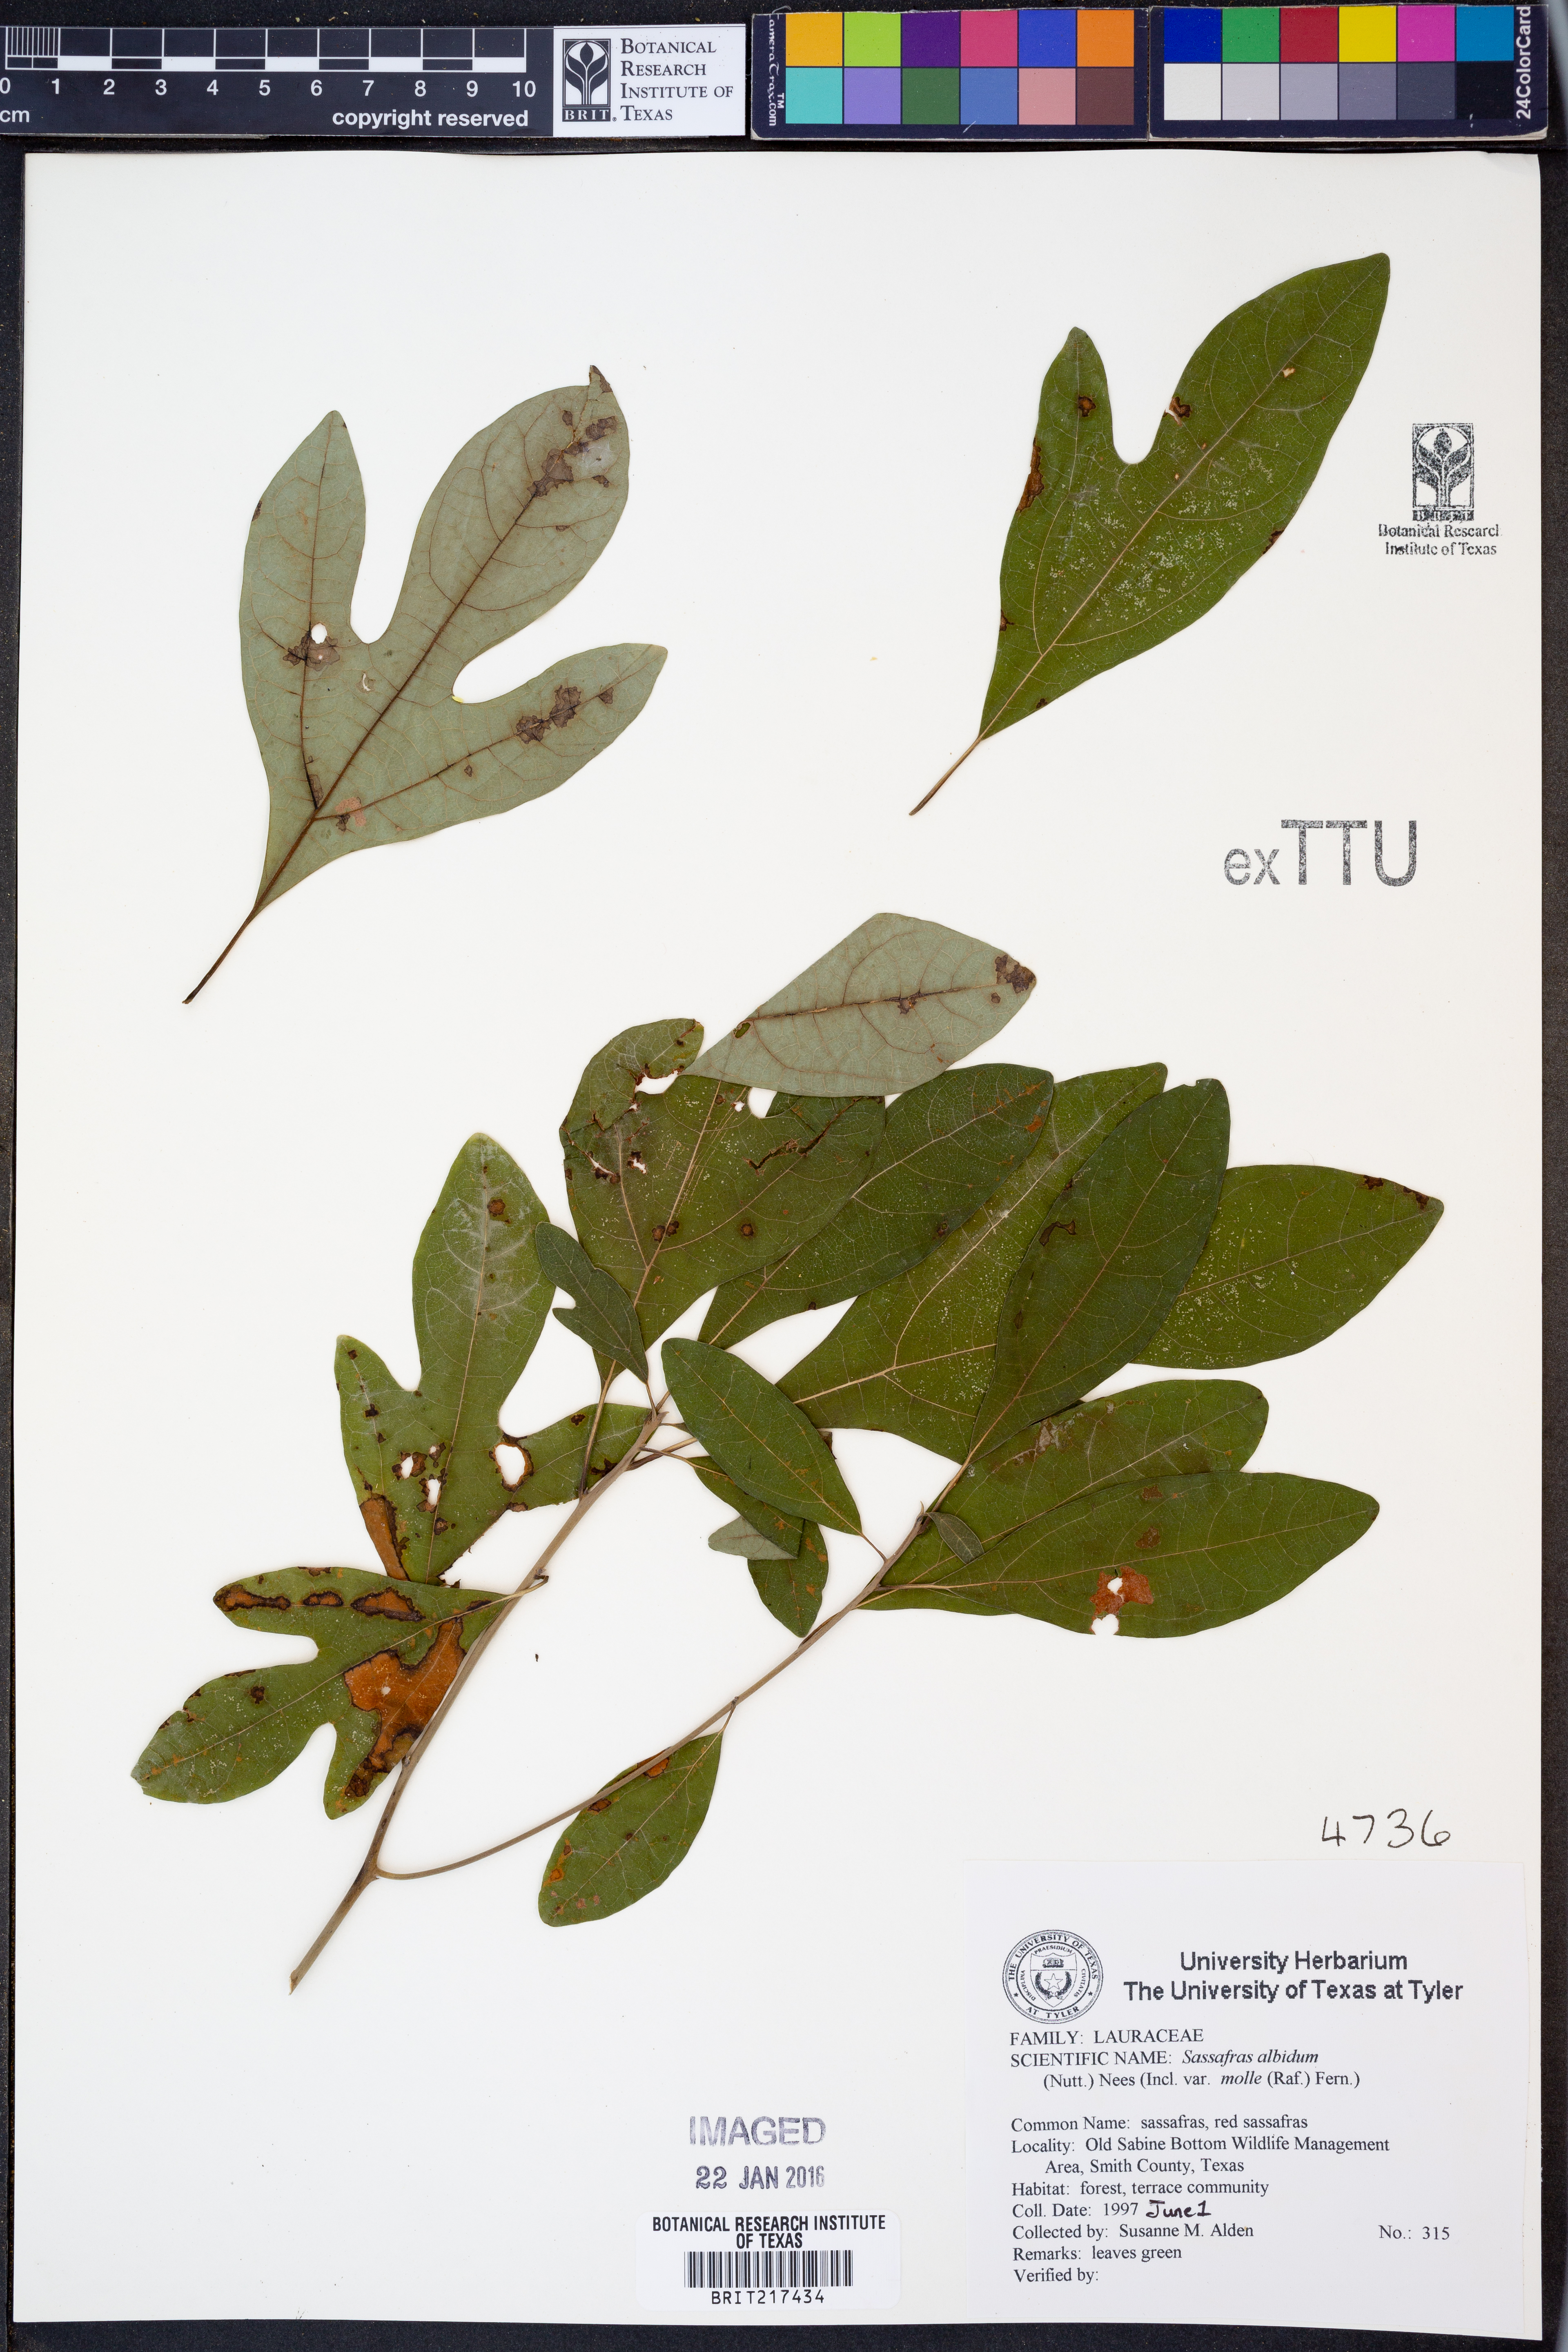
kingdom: Plantae
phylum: Tracheophyta
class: Magnoliopsida
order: Laurales
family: Lauraceae
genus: Sassafras
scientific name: Sassafras albidum
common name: Sassafras
